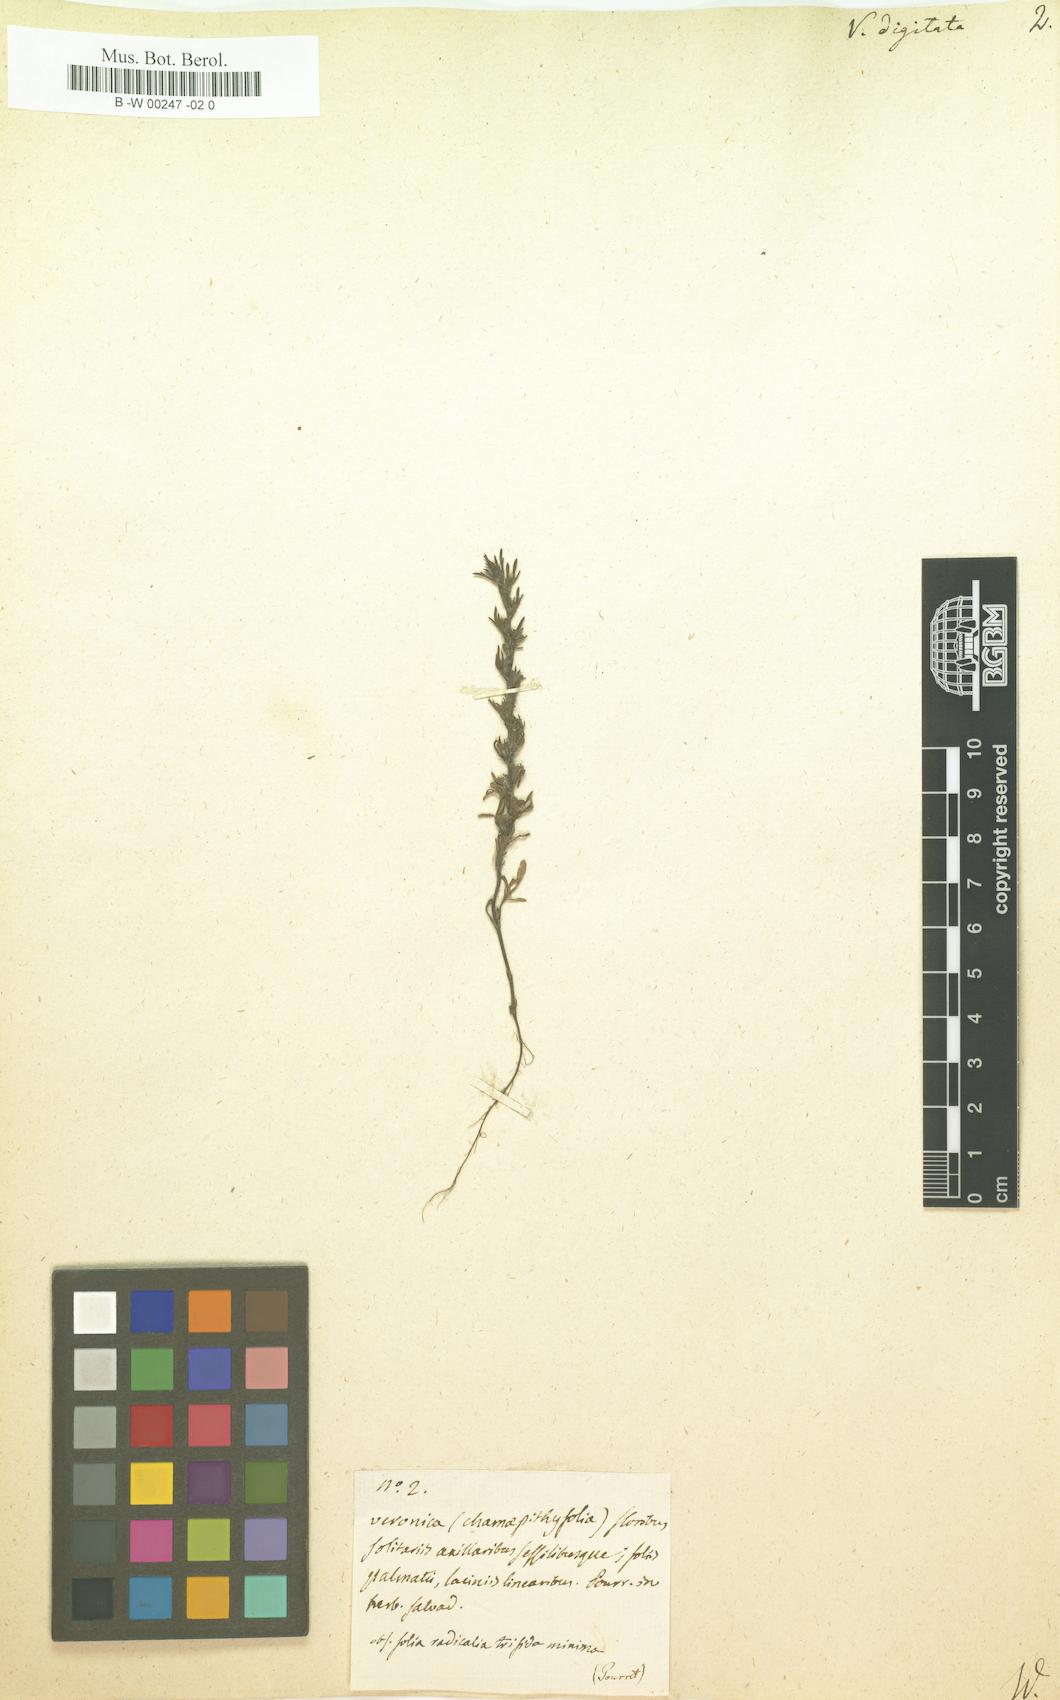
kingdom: Plantae
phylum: Tracheophyta
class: Magnoliopsida
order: Lamiales
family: Plantaginaceae
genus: Veronica
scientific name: Veronica
